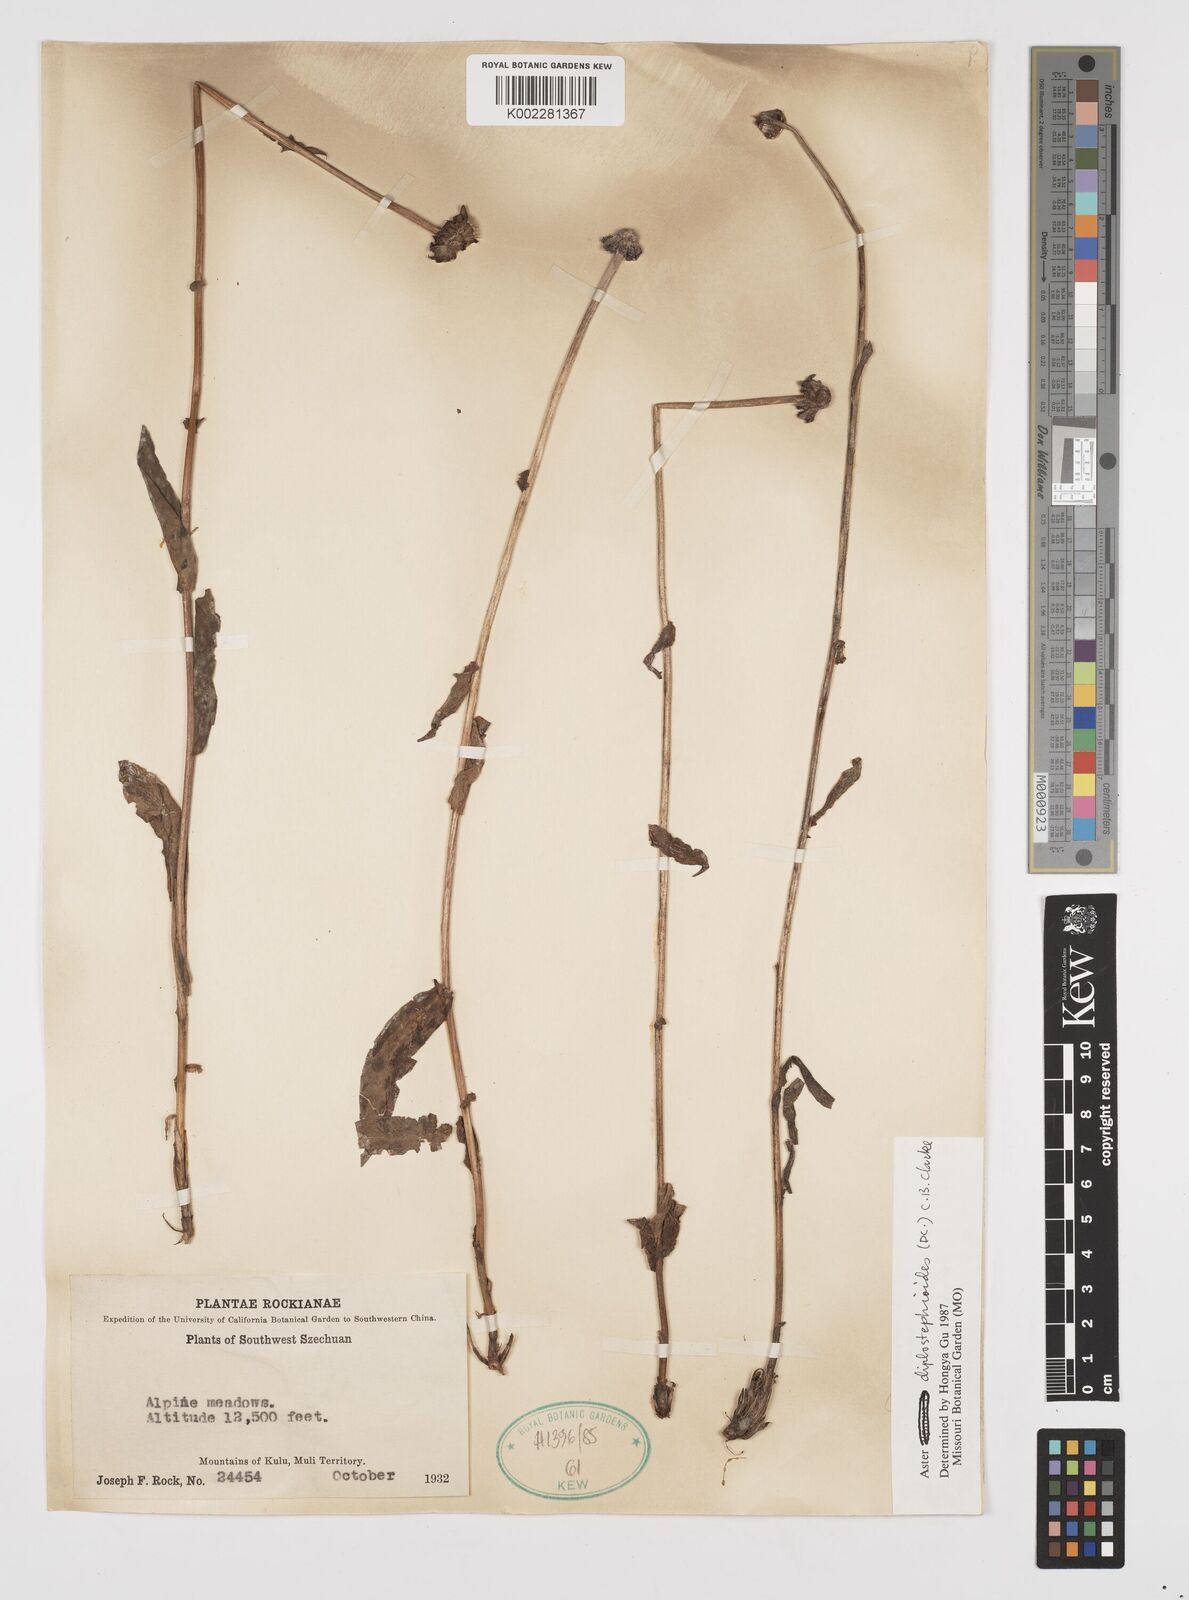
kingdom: Plantae
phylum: Tracheophyta
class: Magnoliopsida
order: Asterales
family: Asteraceae
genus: Tibetiodes
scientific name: Tibetiodes diplostephioides
